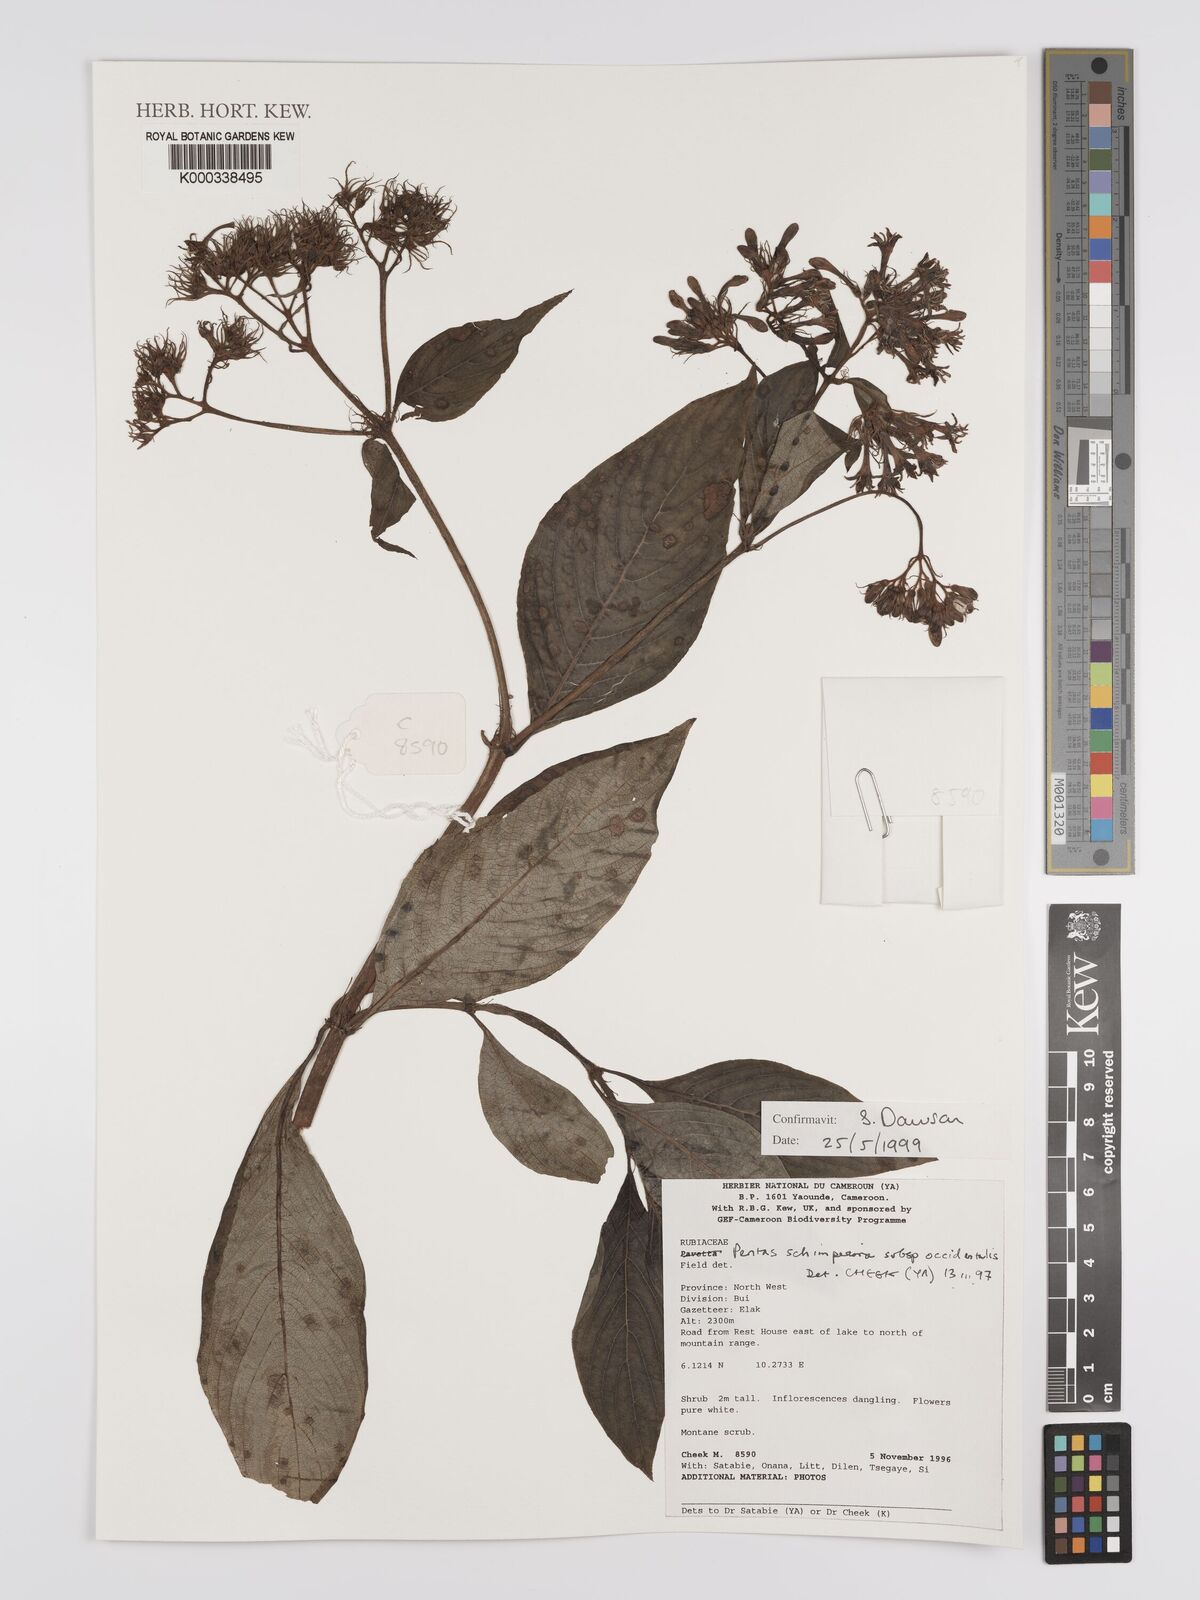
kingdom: Plantae
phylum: Tracheophyta
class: Magnoliopsida
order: Gentianales
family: Rubiaceae
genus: Phyllopentas
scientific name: Phyllopentas schimperi
